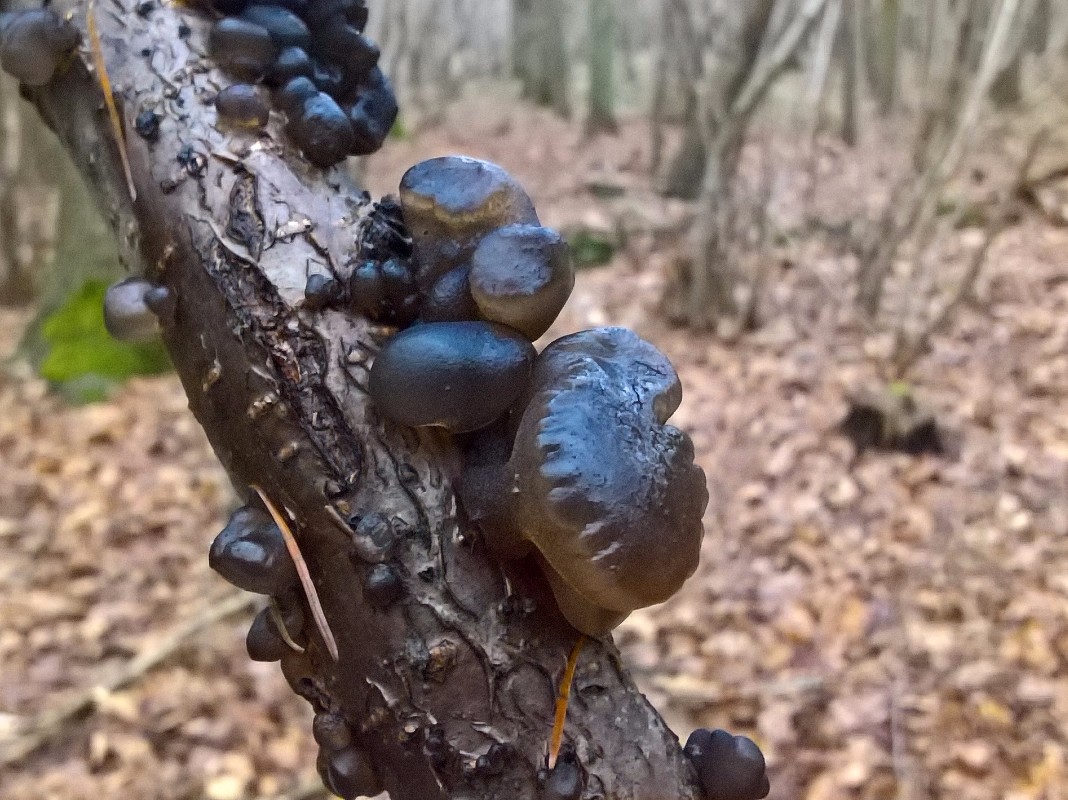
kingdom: Fungi
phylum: Basidiomycota
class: Agaricomycetes
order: Auriculariales
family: Auriculariaceae
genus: Exidia
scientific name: Exidia glandulosa
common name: ege-bævretop
